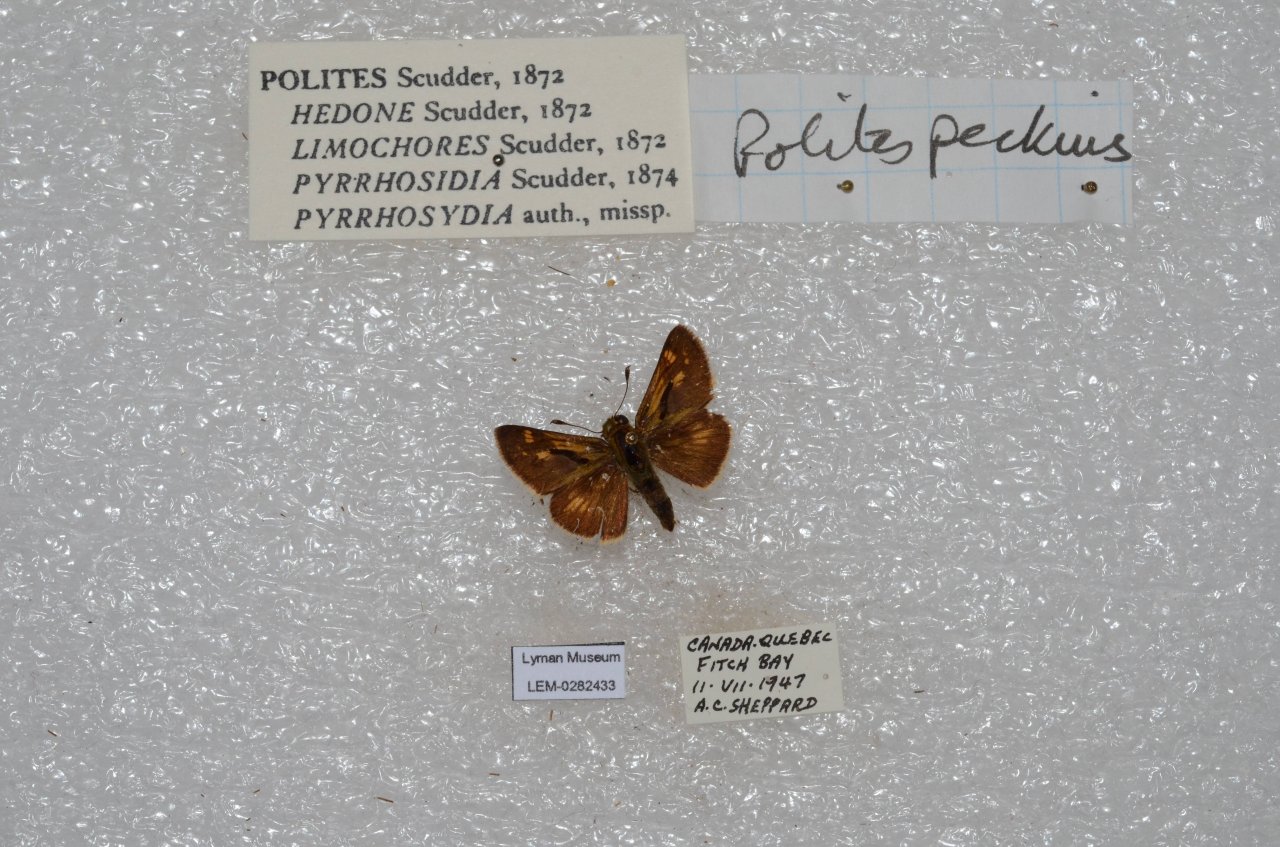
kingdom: Animalia
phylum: Arthropoda
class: Insecta
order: Lepidoptera
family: Hesperiidae
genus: Polites
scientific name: Polites coras
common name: Peck's Skipper
